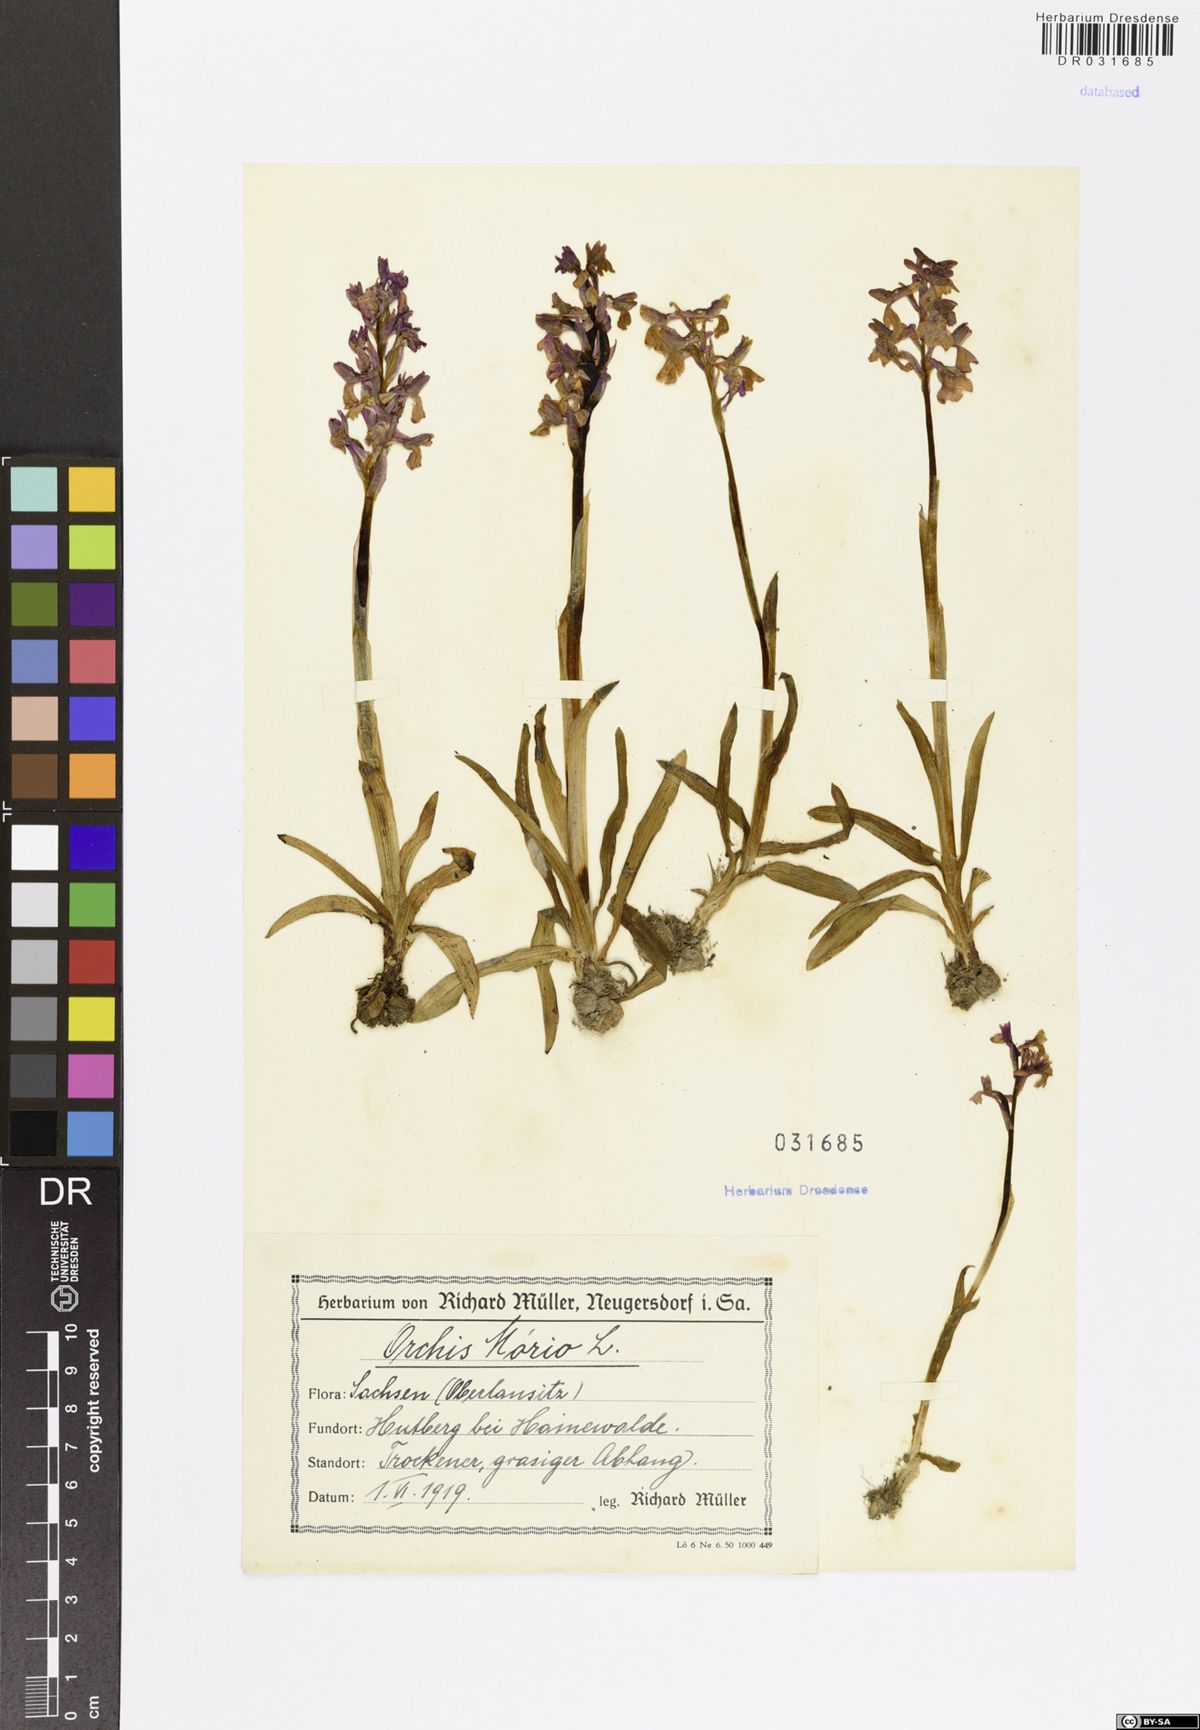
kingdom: Plantae
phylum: Tracheophyta
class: Liliopsida
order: Asparagales
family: Orchidaceae
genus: Anacamptis
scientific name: Anacamptis morio
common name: Green-winged orchid
